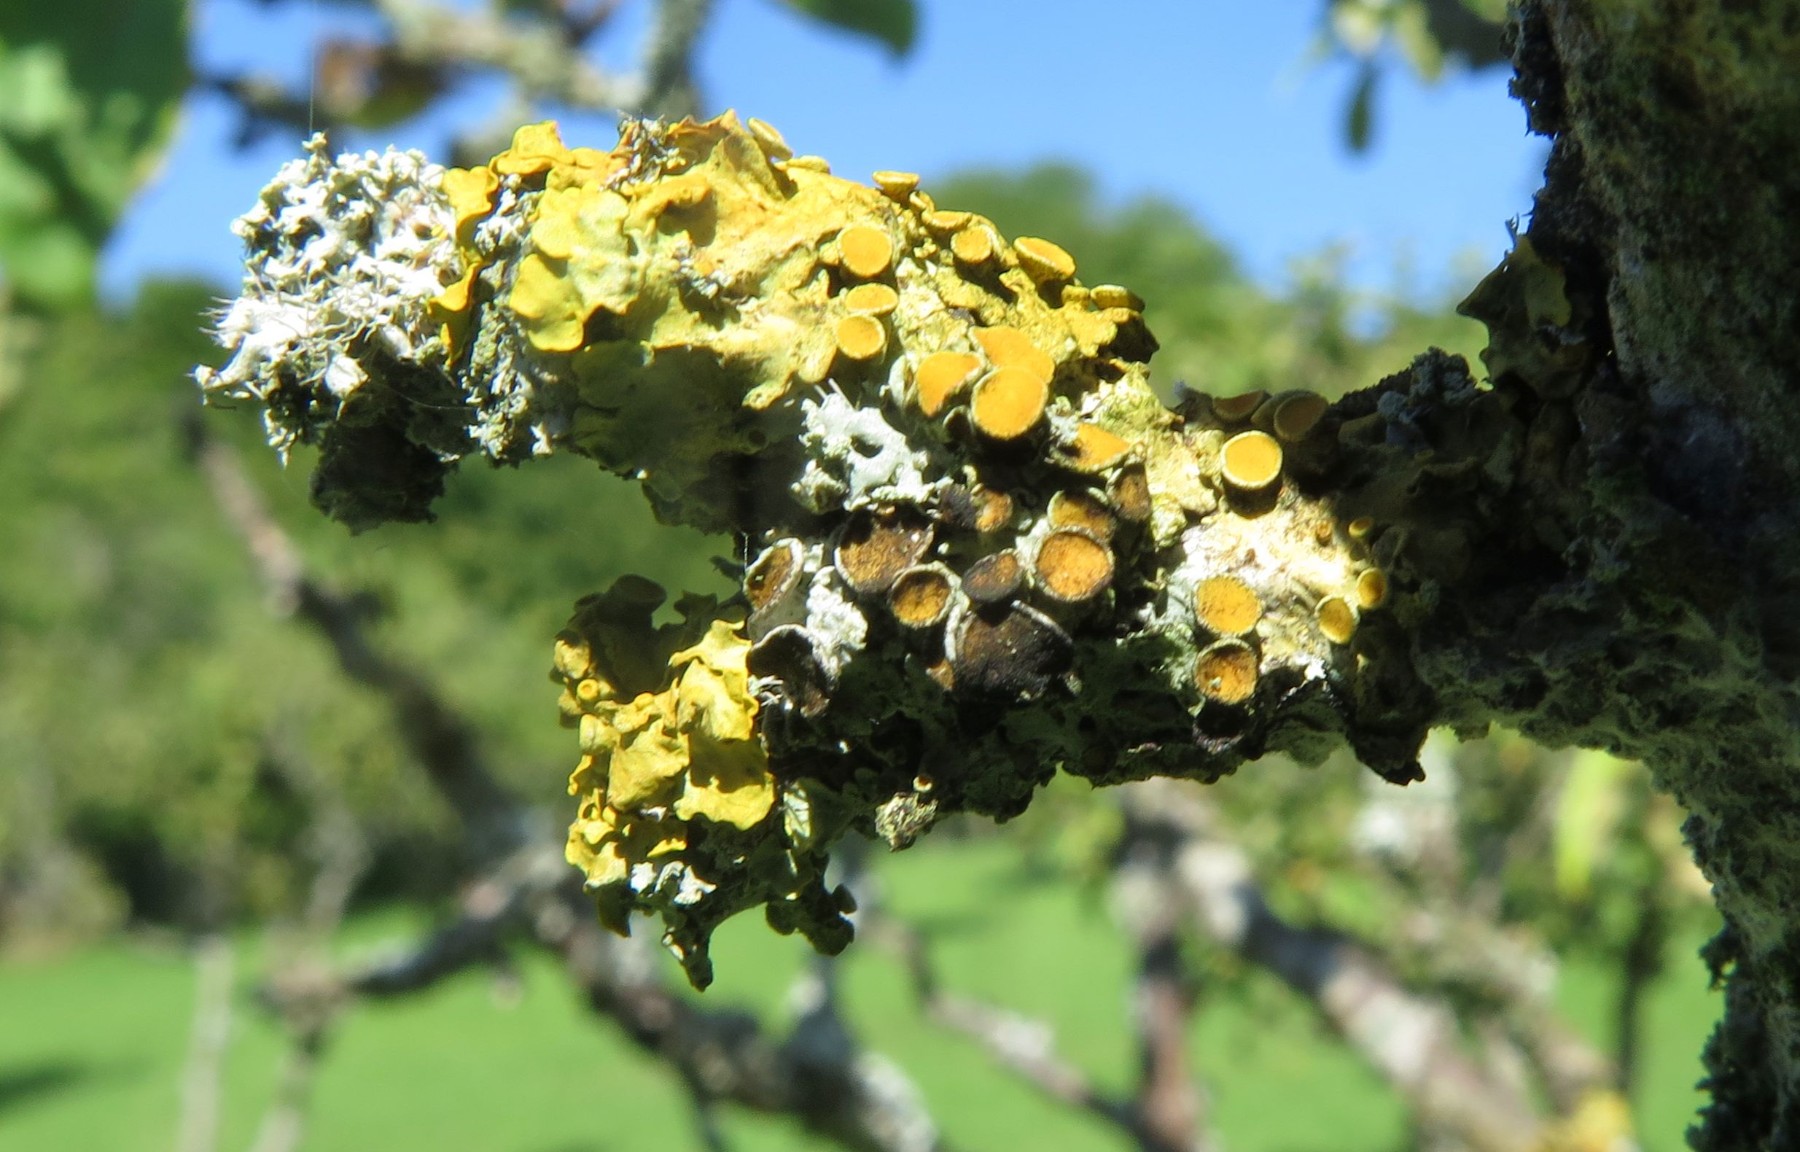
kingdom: Fungi
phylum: Ascomycota
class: Dothideomycetes
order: Mycosphaerellales
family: Teratosphaeriaceae
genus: Xanthoriicola
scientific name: Xanthoriicola physciae
